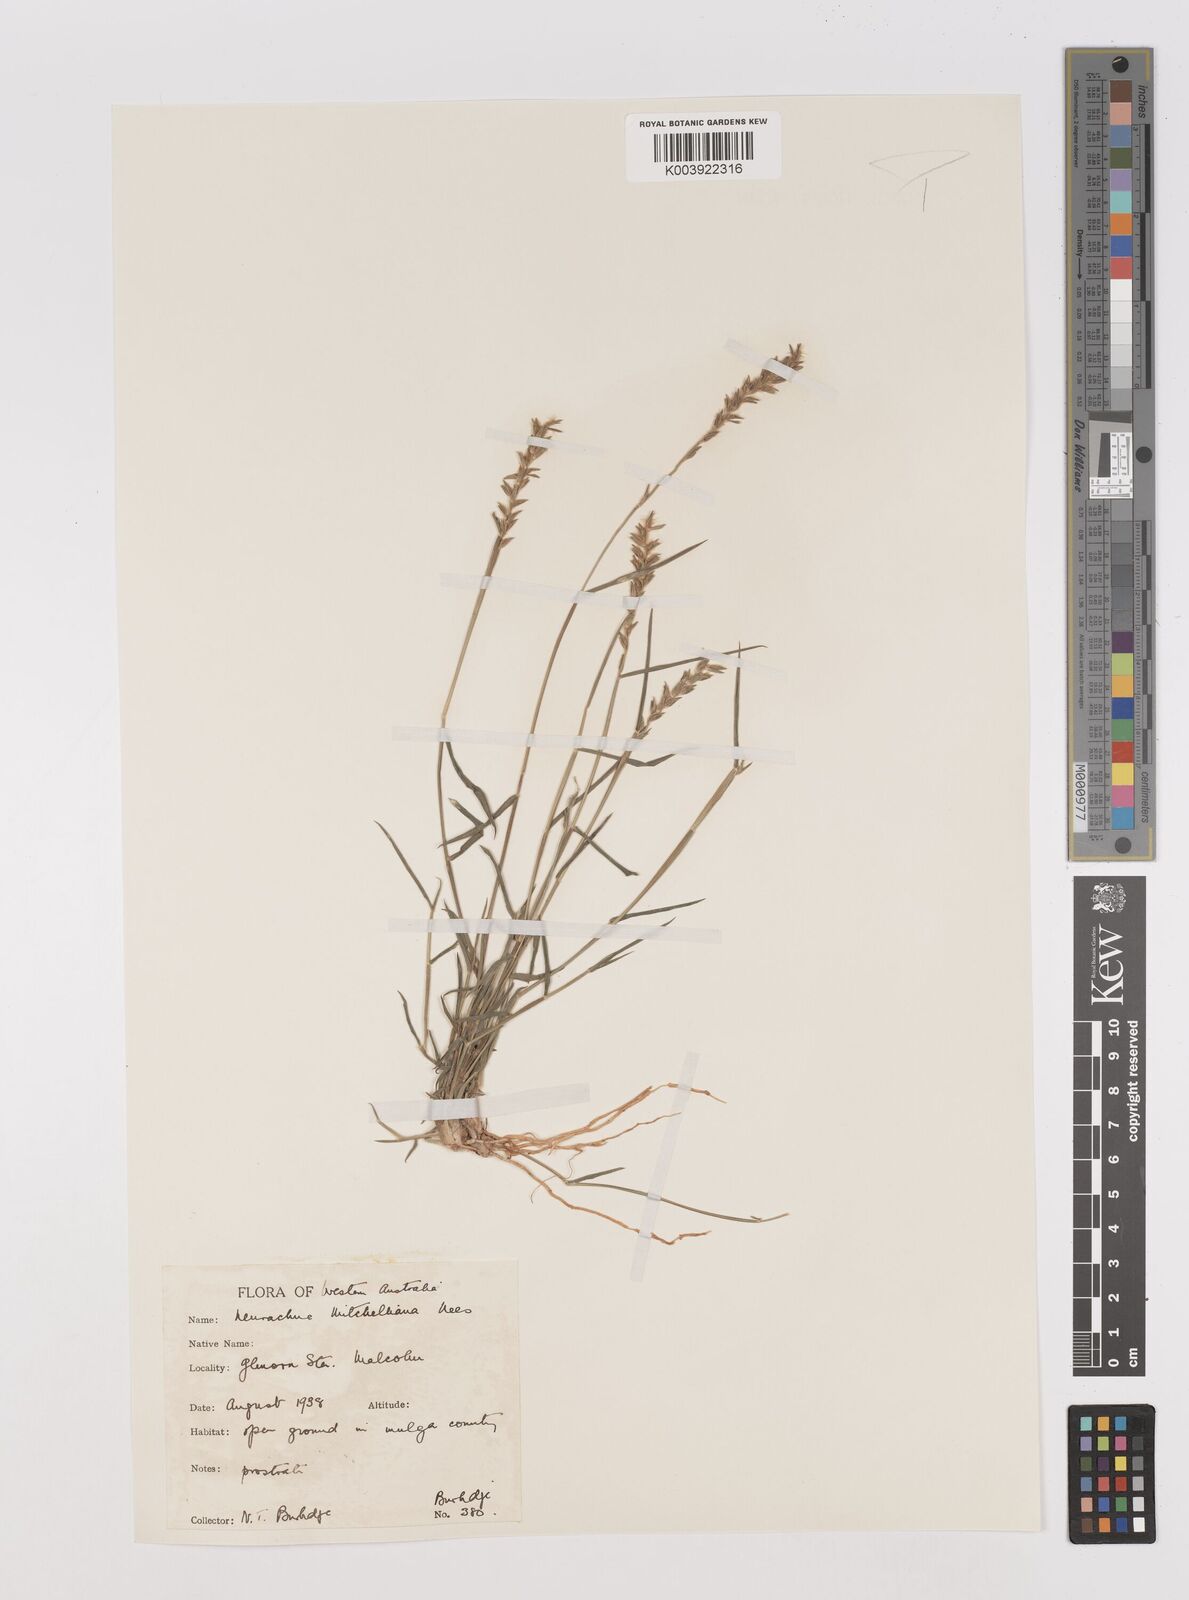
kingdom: Plantae
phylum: Tracheophyta
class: Liliopsida
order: Poales
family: Poaceae
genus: Thyridolepis
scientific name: Thyridolepis mitchelliana
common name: Rock tassel grass
